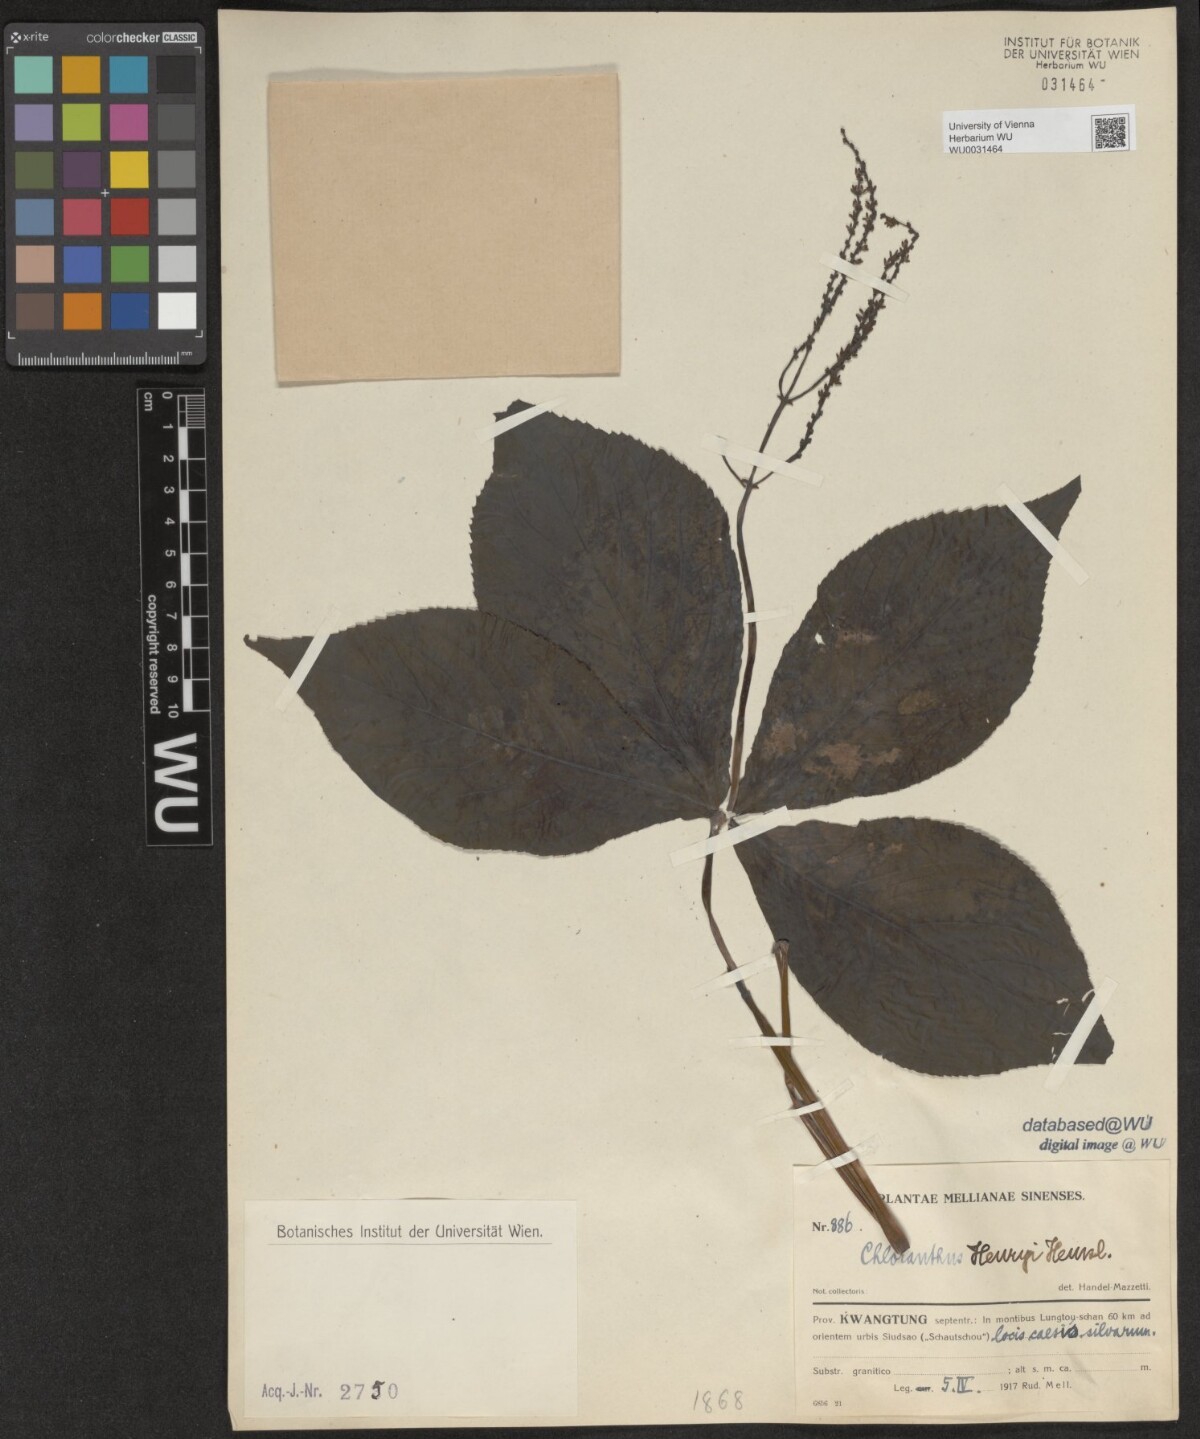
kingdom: Plantae
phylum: Tracheophyta
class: Magnoliopsida
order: Chloranthales
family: Chloranthaceae
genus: Chloranthus
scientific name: Chloranthus henryi
